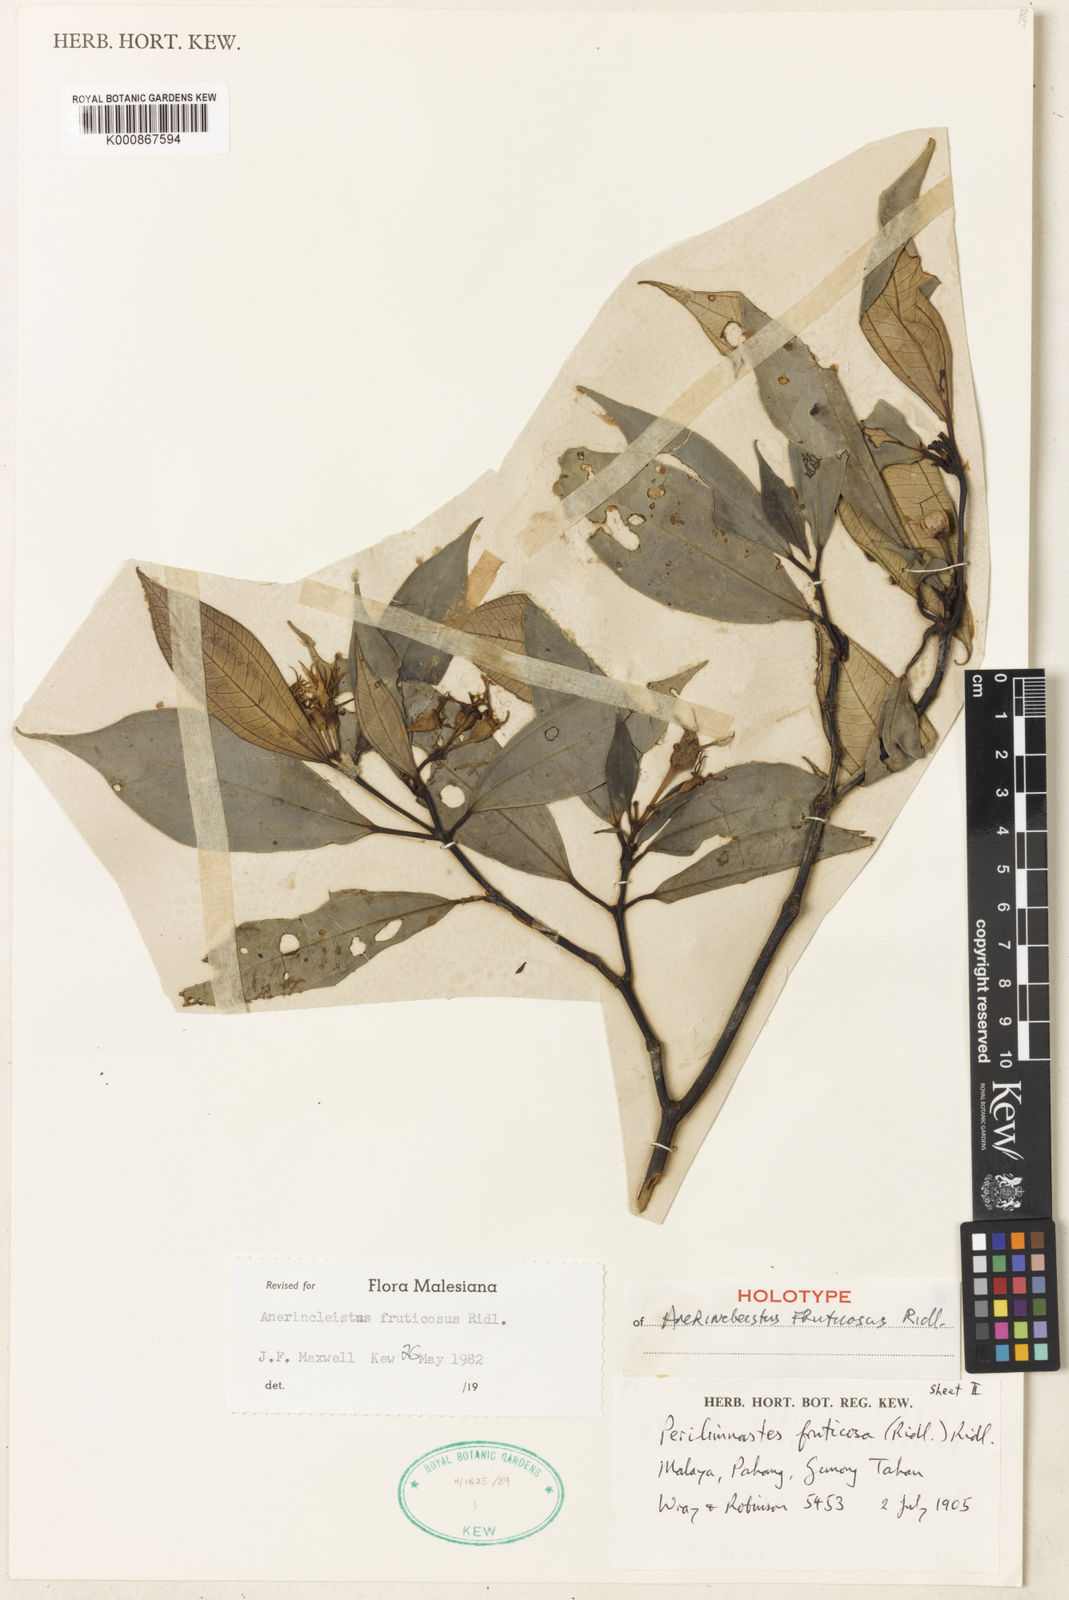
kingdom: Plantae
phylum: Tracheophyta
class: Magnoliopsida
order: Myrtales
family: Melastomataceae
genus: Anerincleistus
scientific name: Anerincleistus fruticosus
